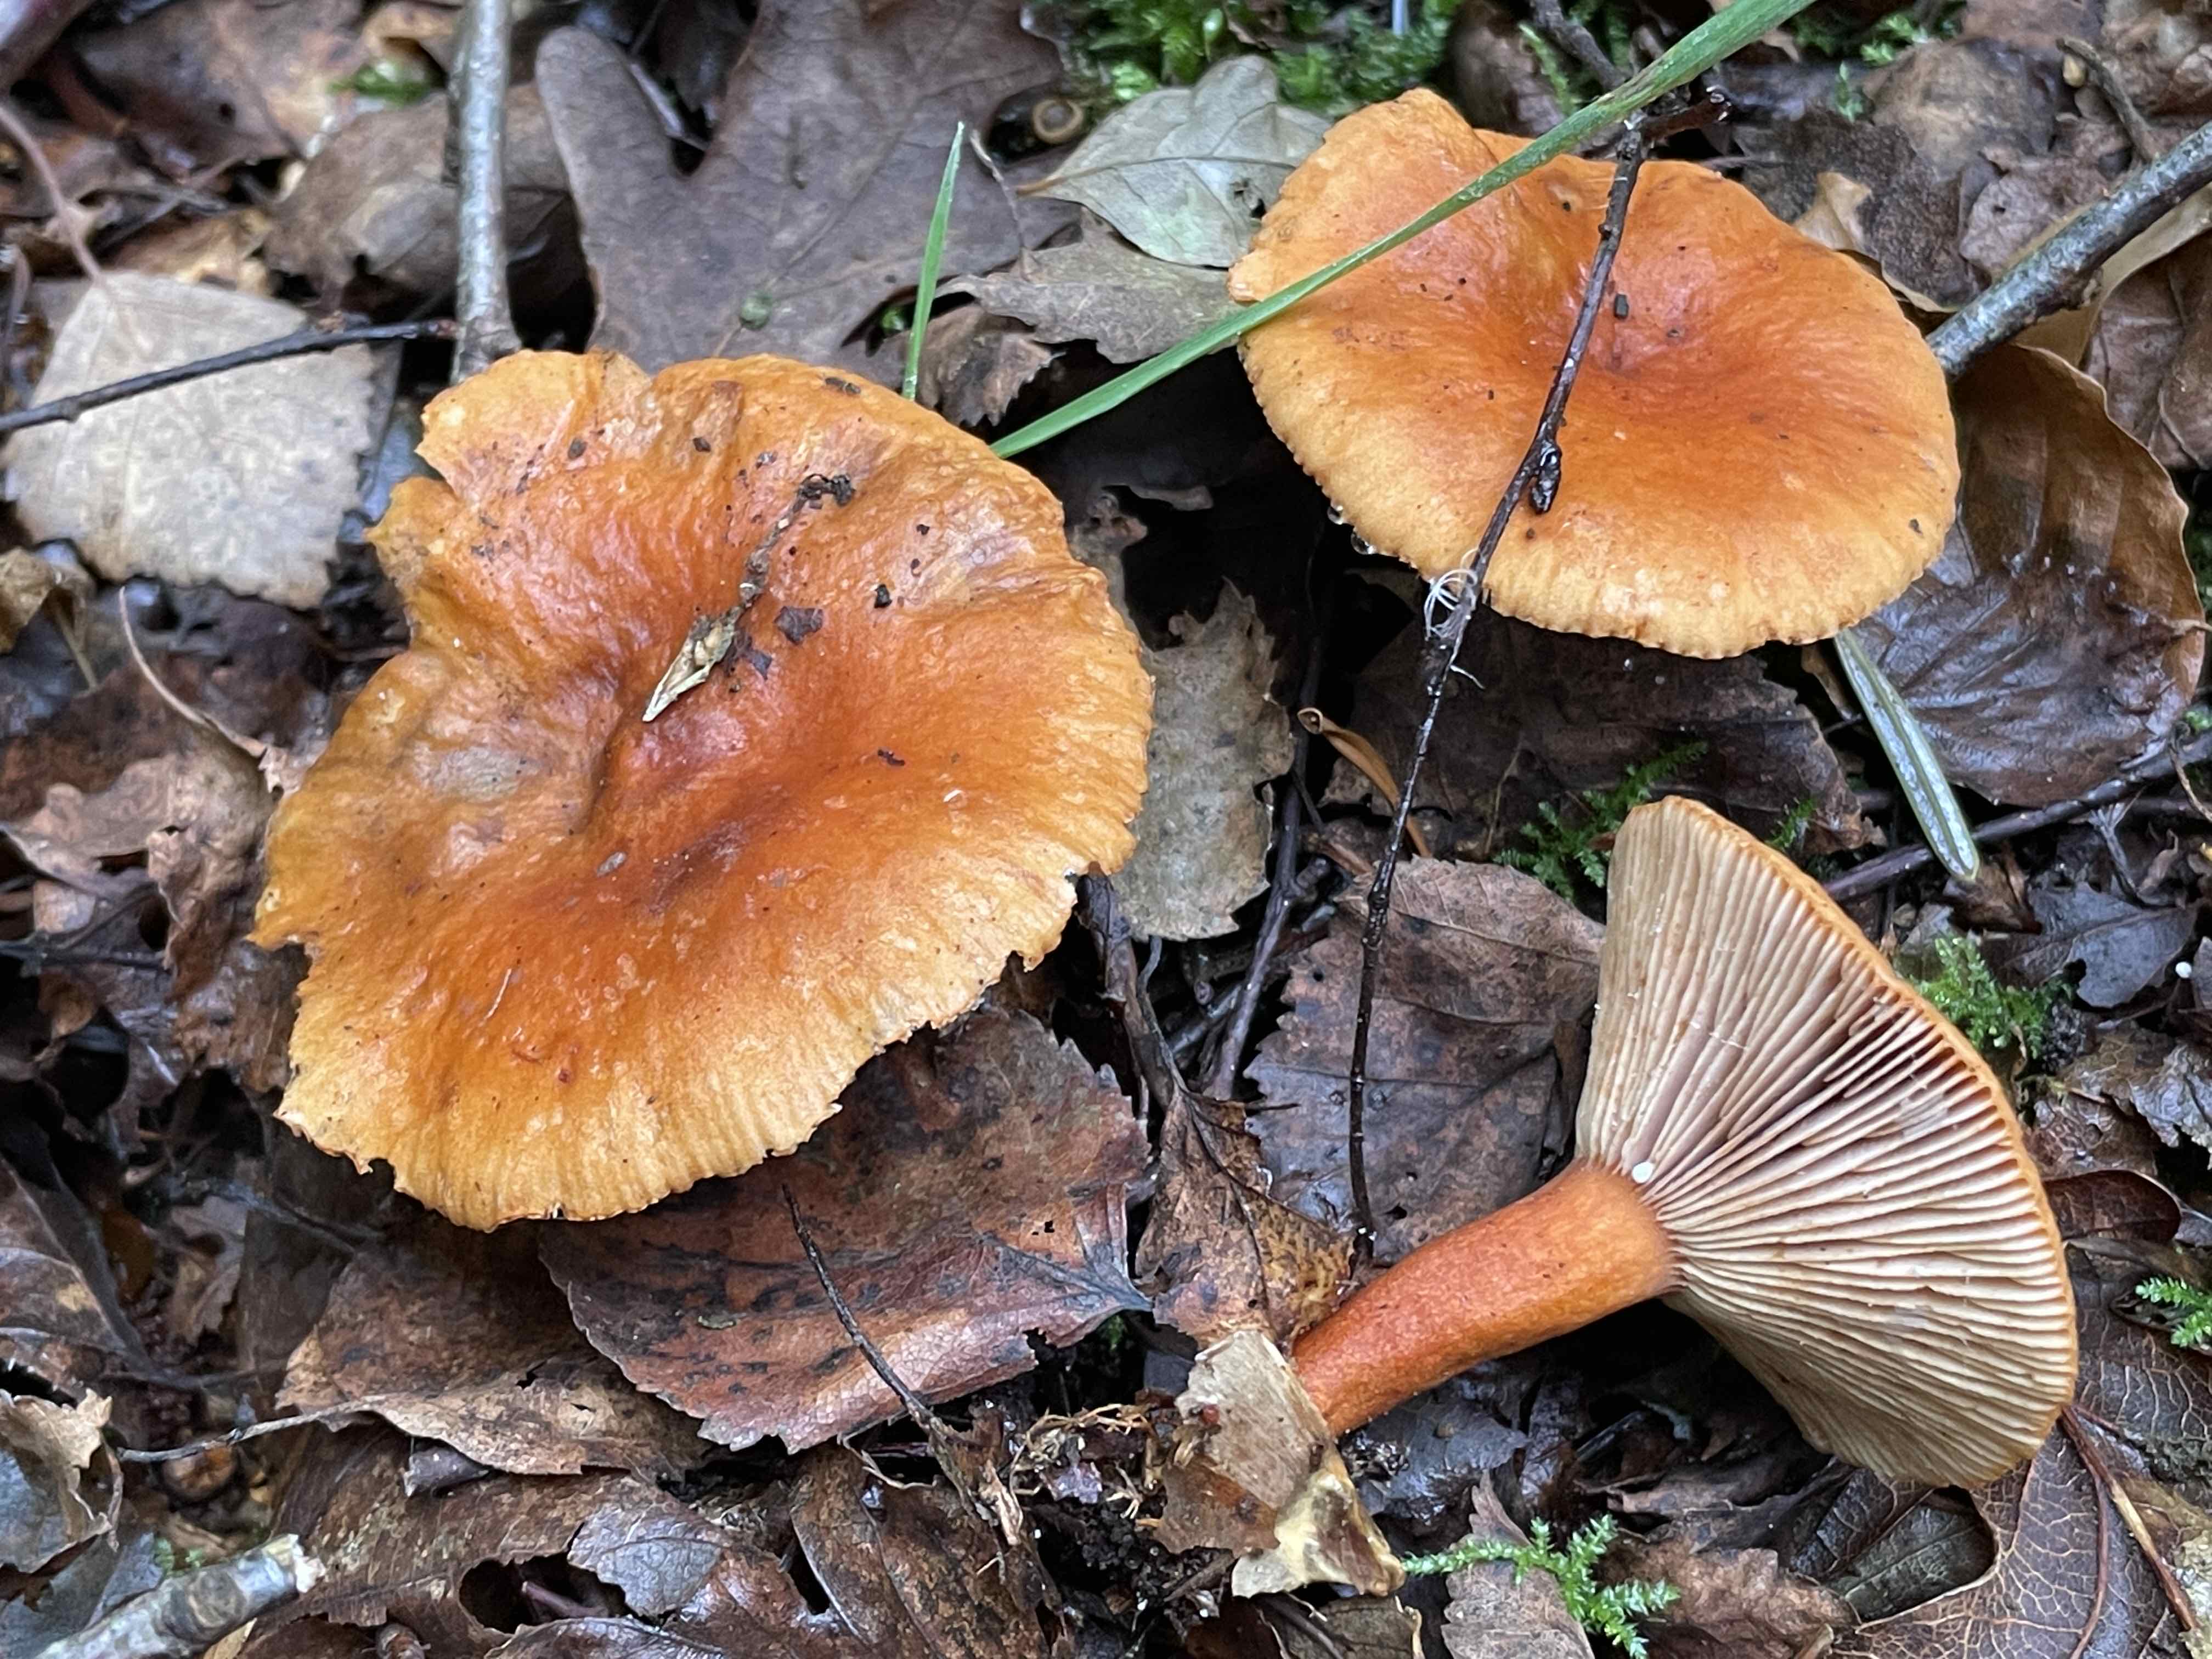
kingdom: Fungi
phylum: Basidiomycota
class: Agaricomycetes
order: Russulales
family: Russulaceae
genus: Lactarius
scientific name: Lactarius aurantiacus
